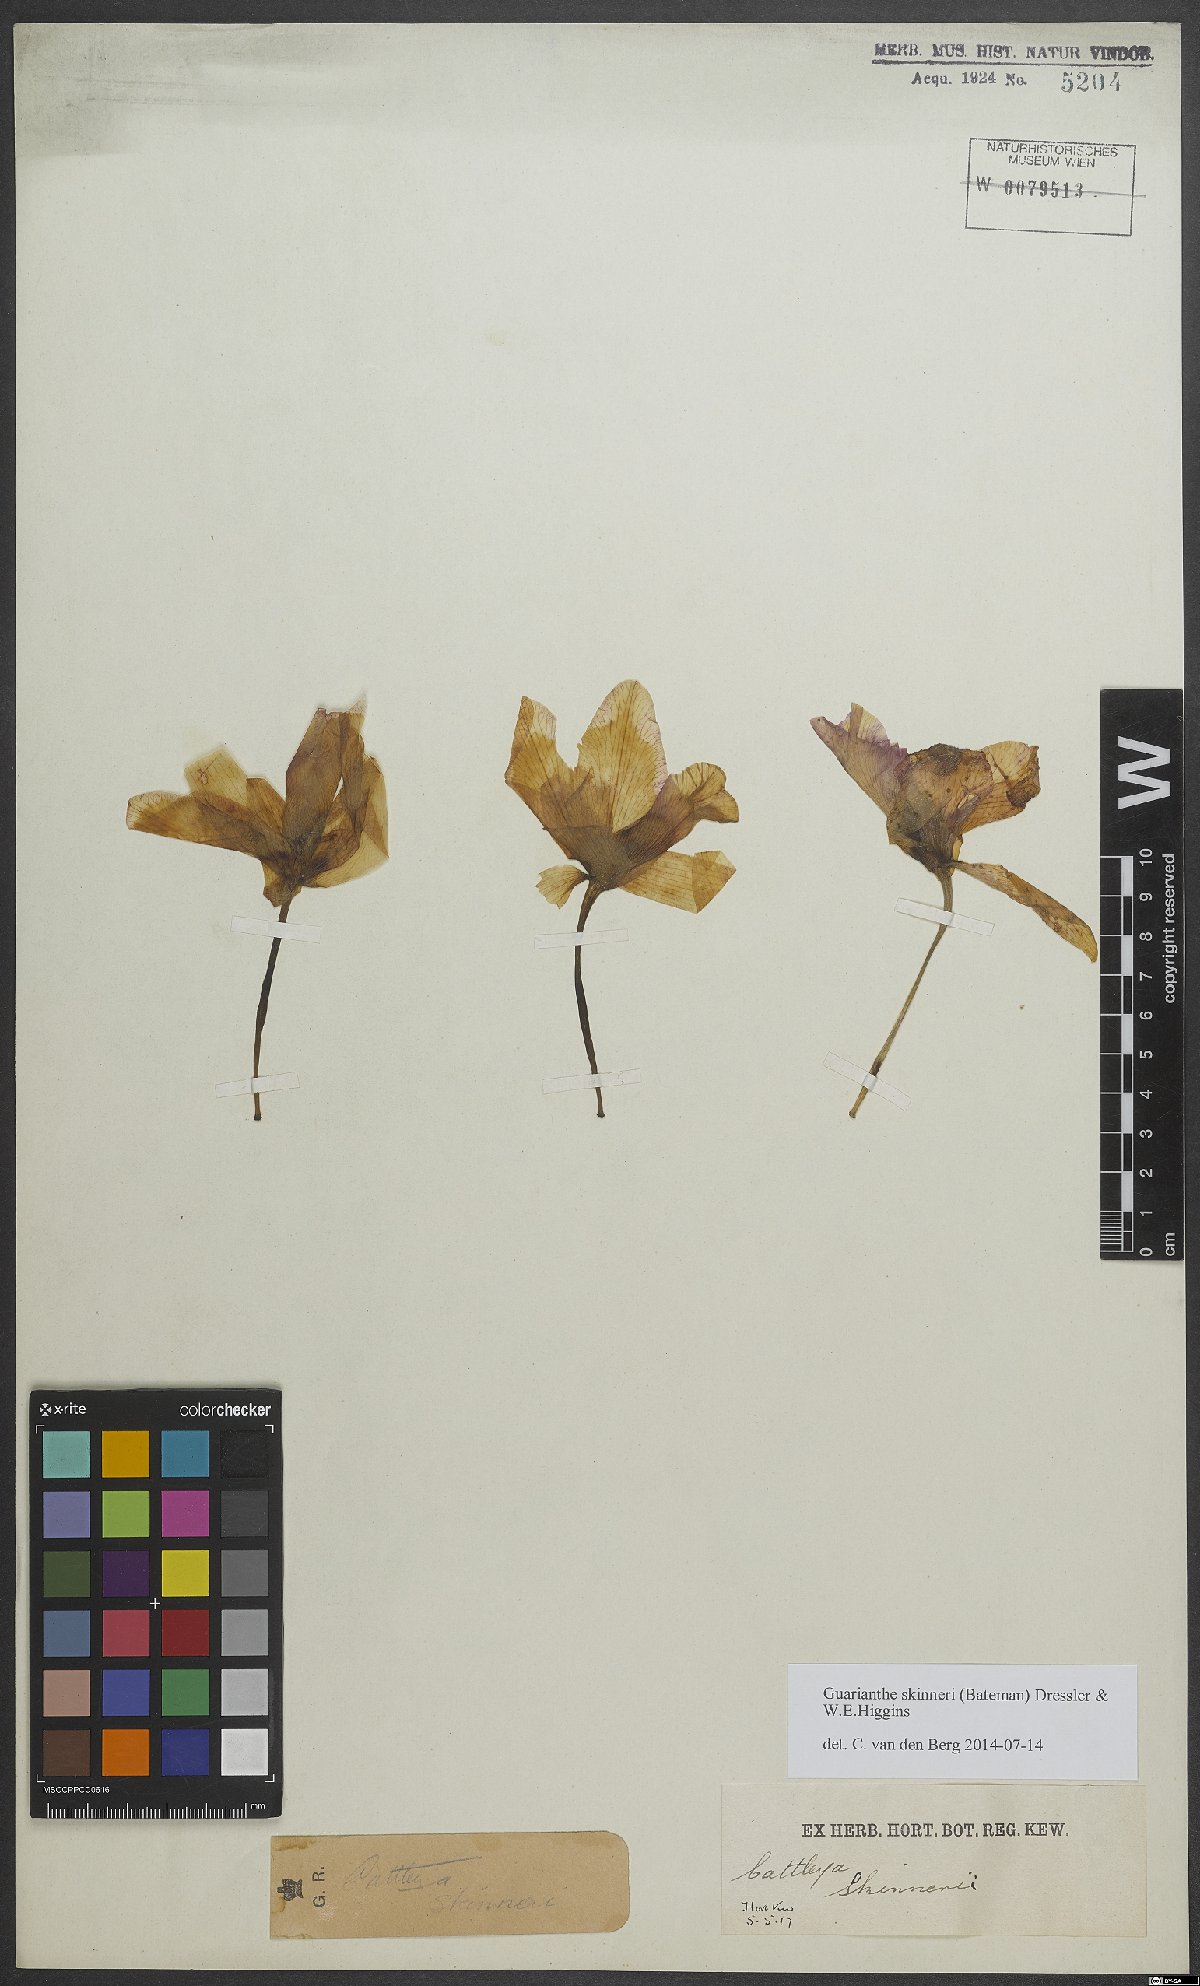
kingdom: Plantae
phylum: Tracheophyta
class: Liliopsida
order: Asparagales
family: Orchidaceae
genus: Guarianthe
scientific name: Guarianthe skinneri
